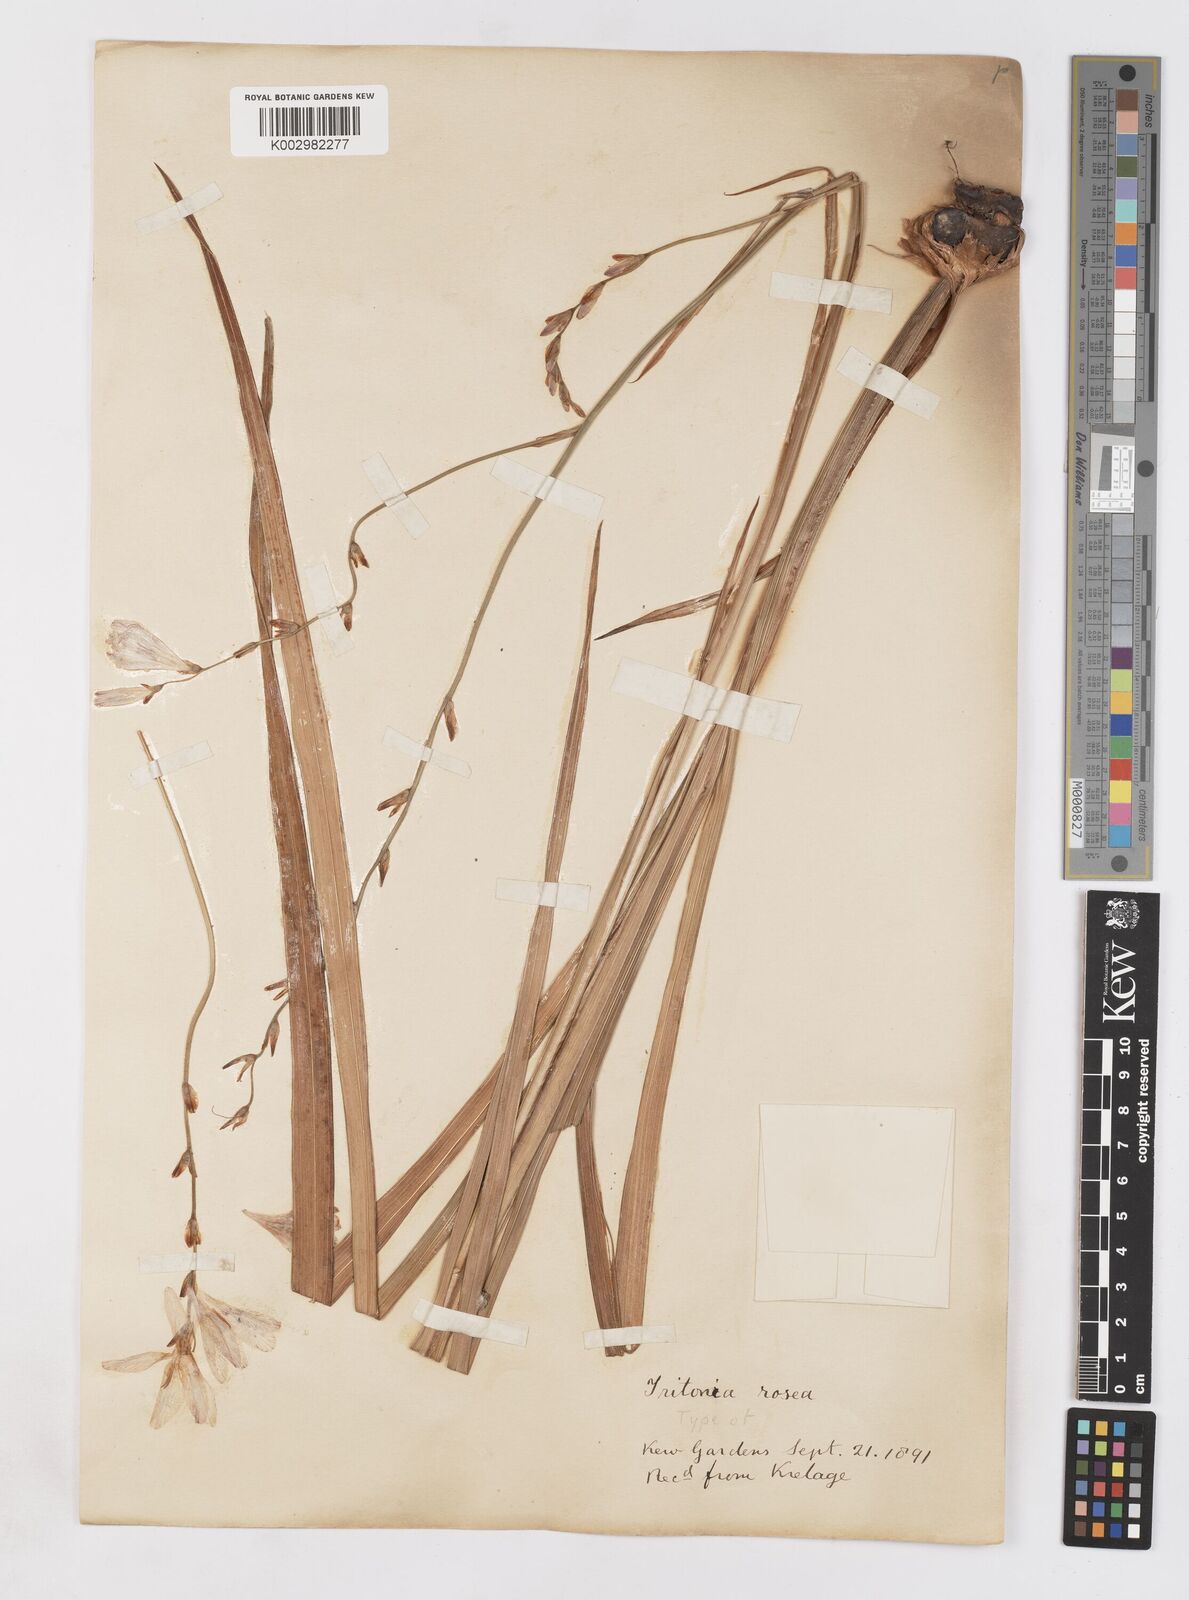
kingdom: Plantae
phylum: Tracheophyta
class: Liliopsida
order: Asparagales
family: Iridaceae
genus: Tritonia
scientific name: Tritonia
